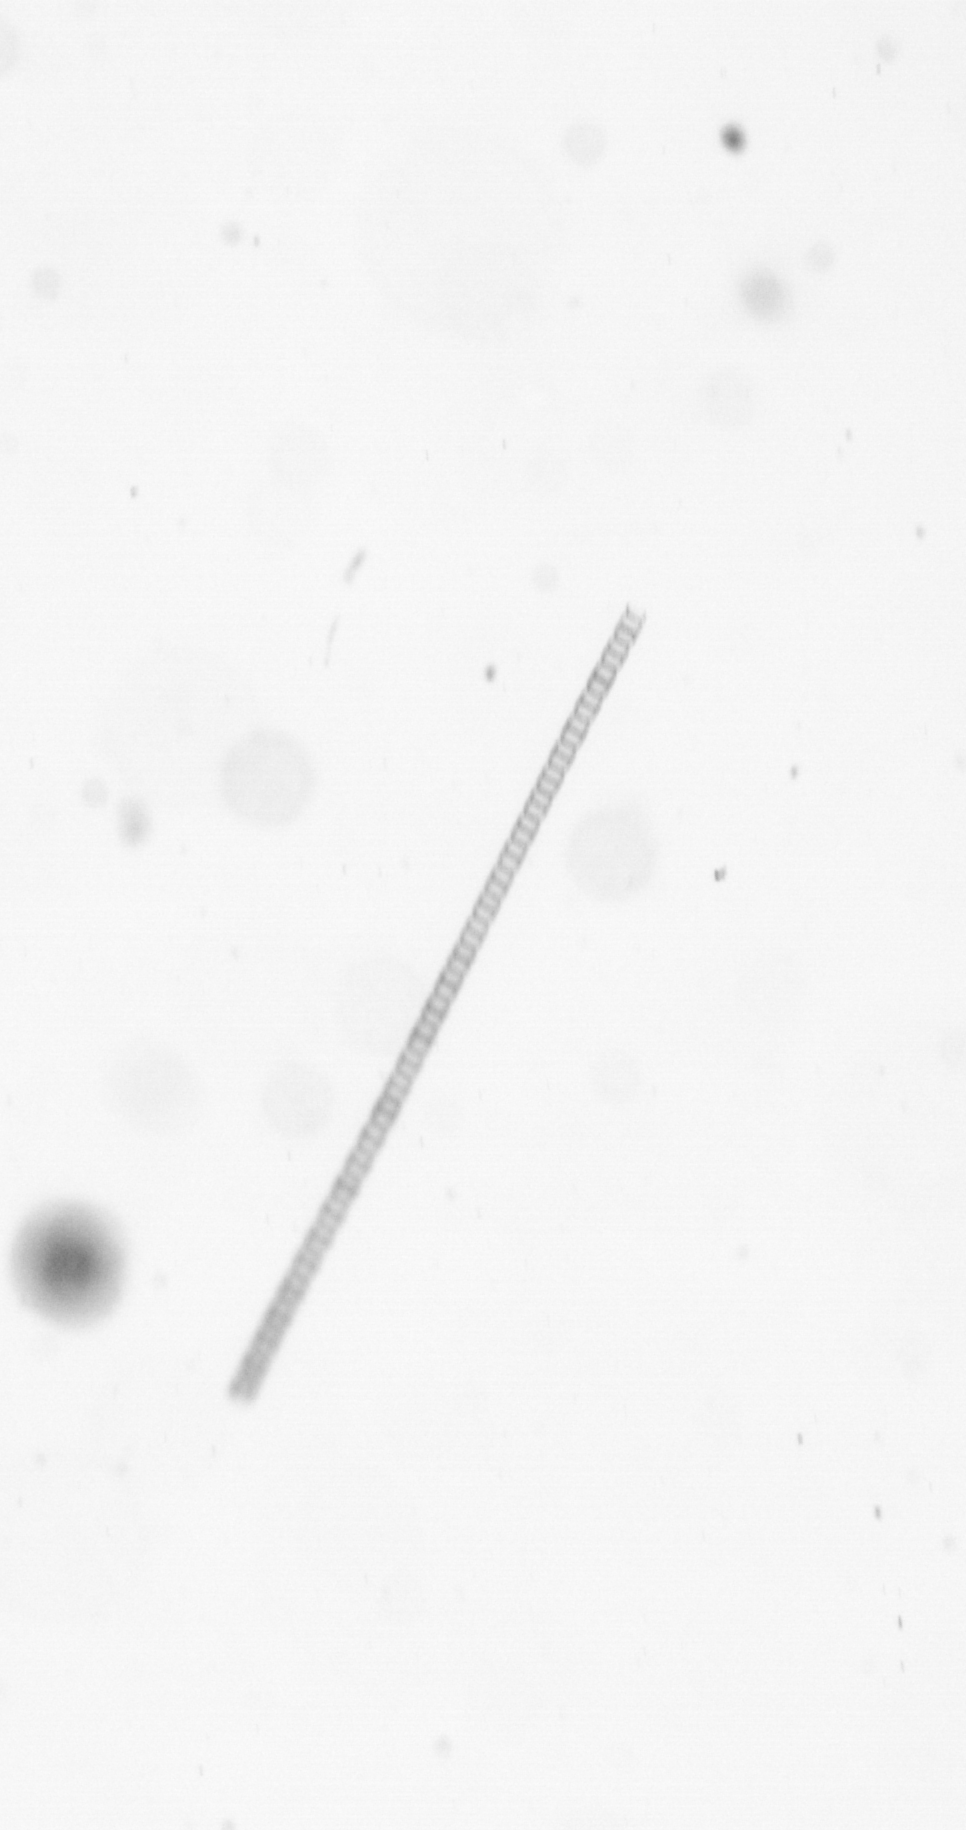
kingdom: Chromista
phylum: Ochrophyta
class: Bacillariophyceae
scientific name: Bacillariophyceae
